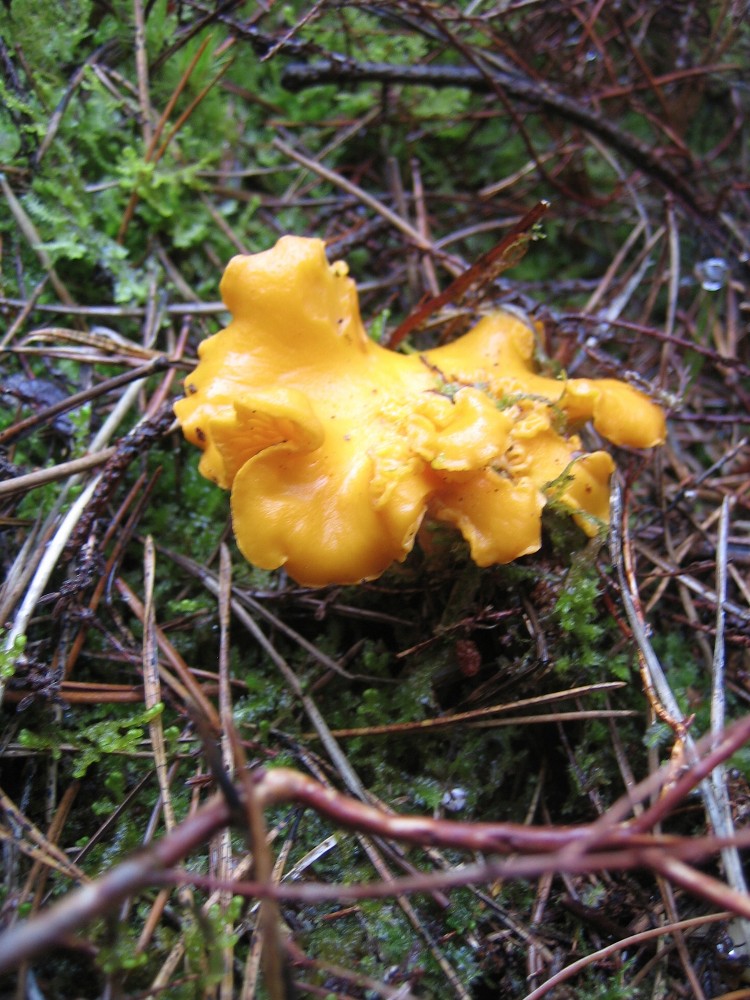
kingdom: Fungi
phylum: Basidiomycota
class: Agaricomycetes
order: Cantharellales
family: Hydnaceae
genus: Cantharellus
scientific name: Cantharellus cibarius
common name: almindelig kantarel
